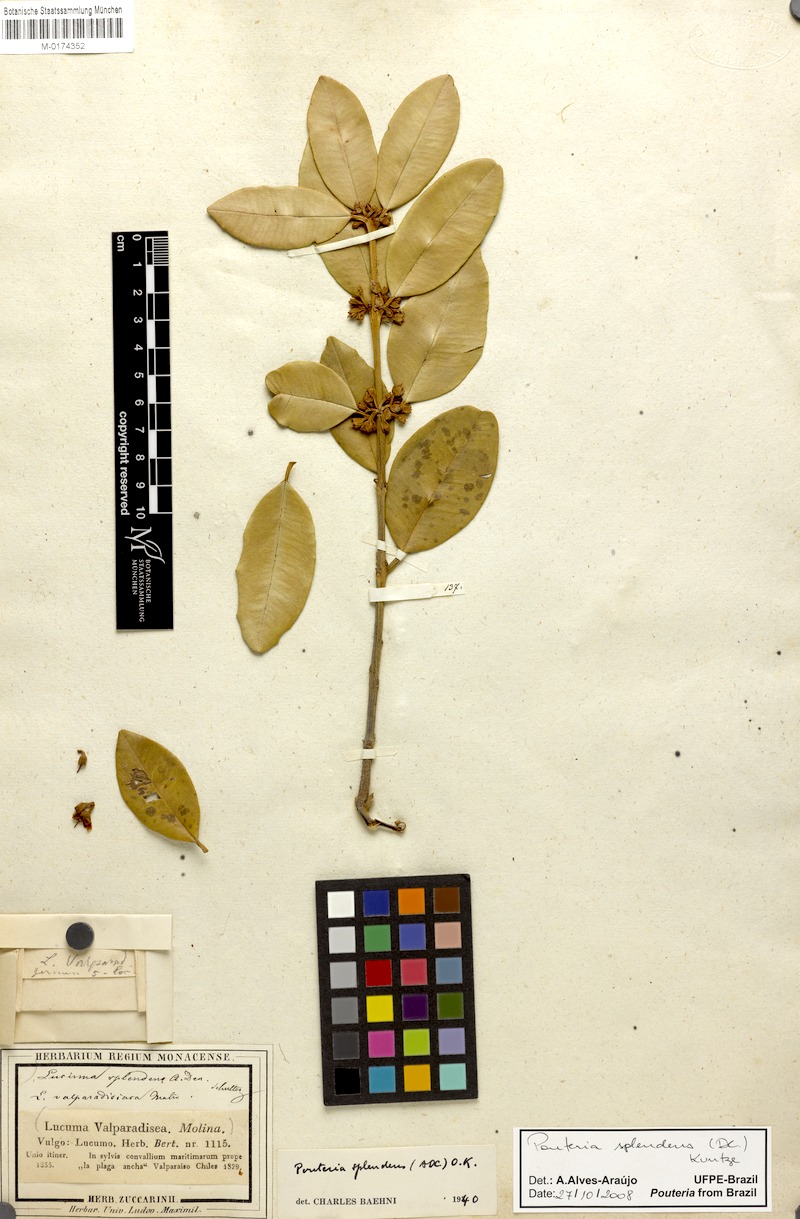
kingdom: Plantae
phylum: Tracheophyta
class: Magnoliopsida
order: Ericales
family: Sapotaceae
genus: Pouteria
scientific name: Pouteria valparadisaea
